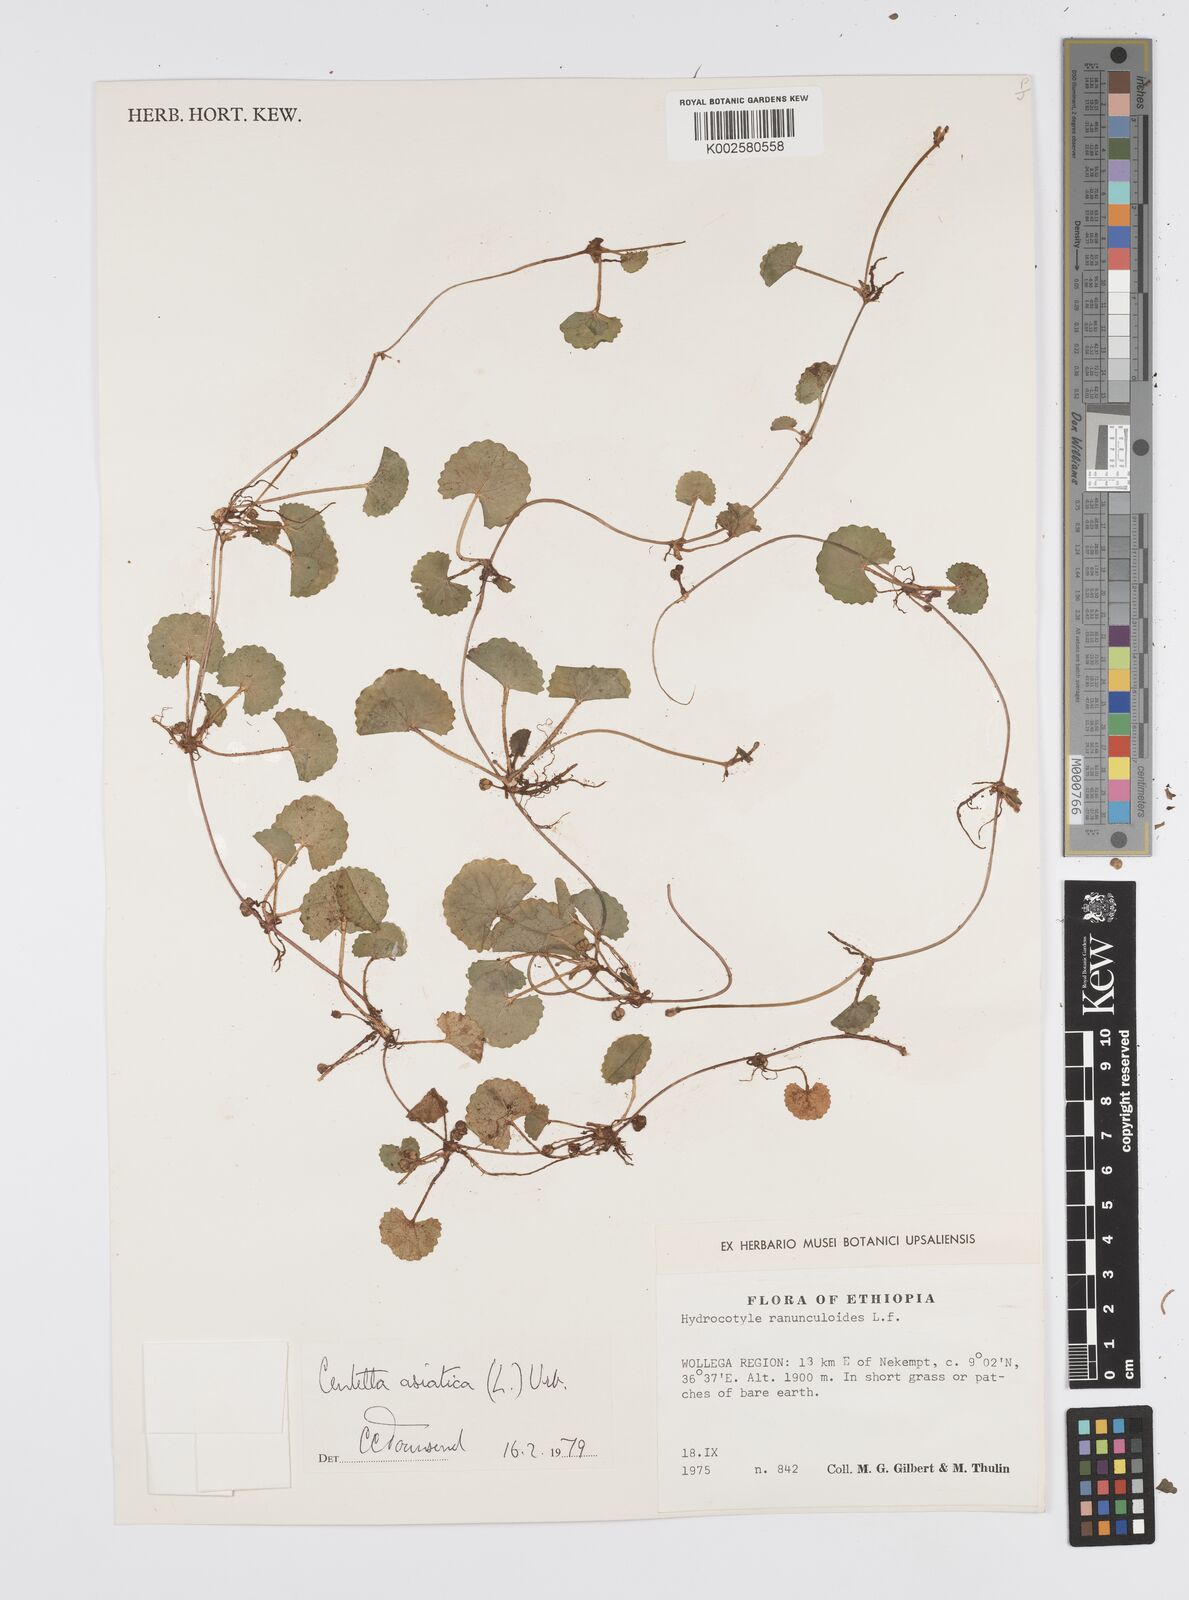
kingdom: Plantae
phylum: Tracheophyta
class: Magnoliopsida
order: Apiales
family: Apiaceae
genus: Centella
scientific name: Centella asiatica
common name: Spadeleaf
